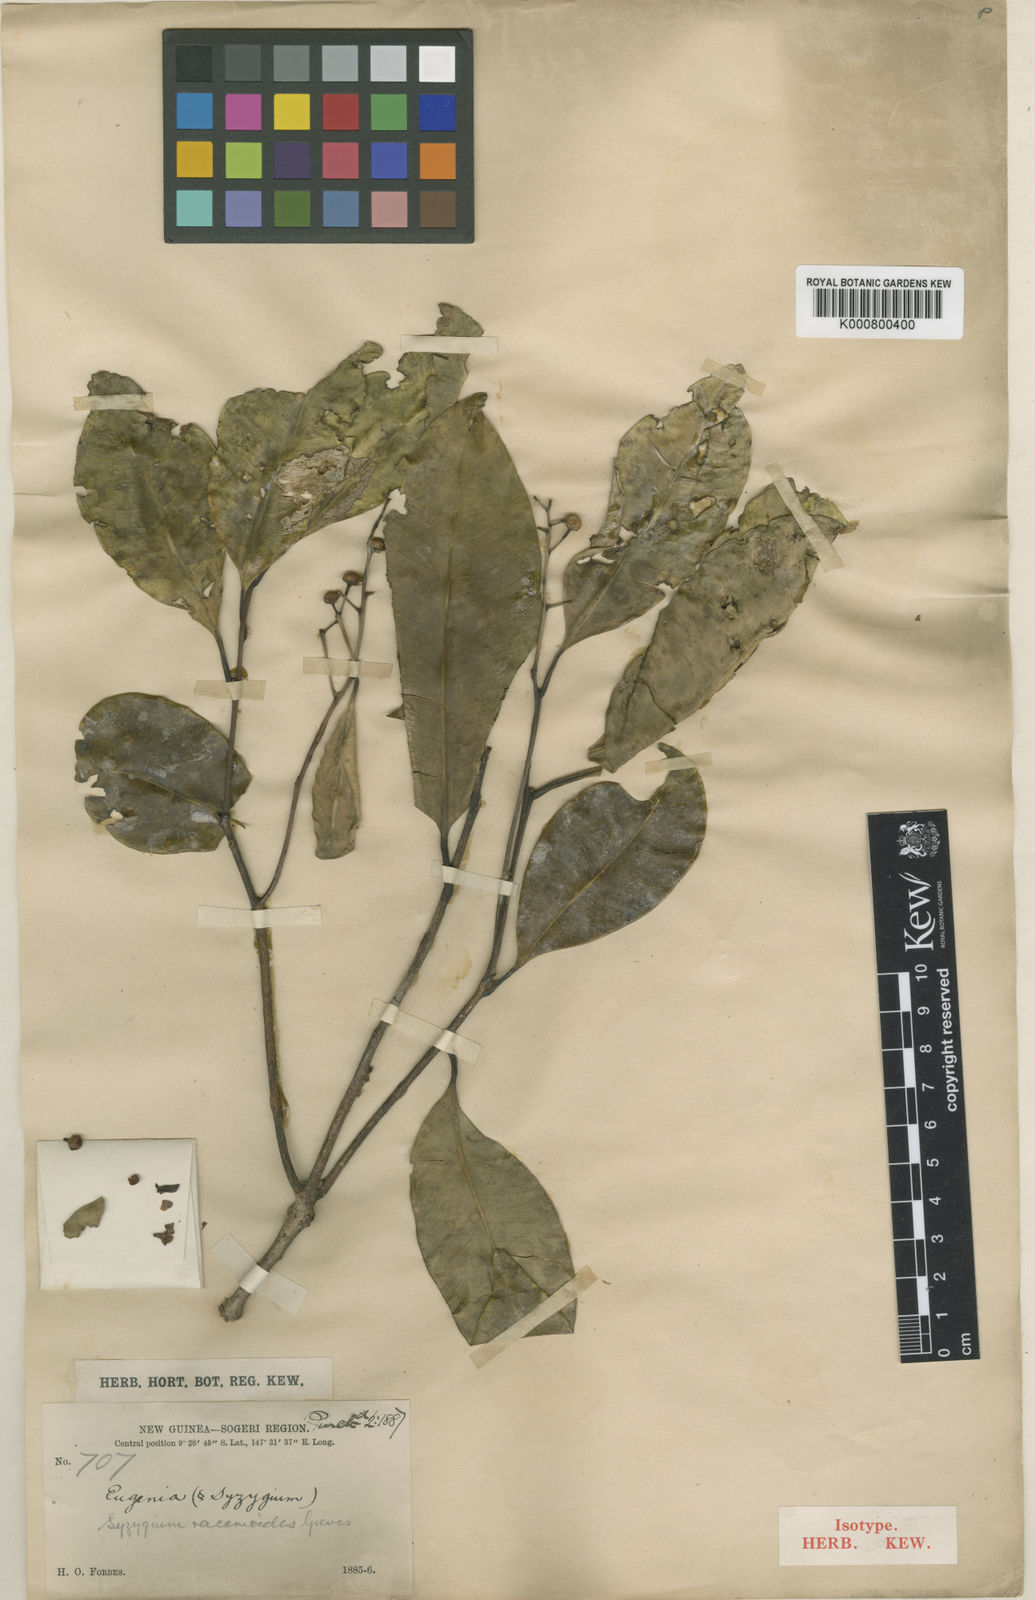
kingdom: Plantae
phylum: Tracheophyta
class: Magnoliopsida
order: Myrtales
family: Myrtaceae
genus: Syzygium
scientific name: Syzygium
